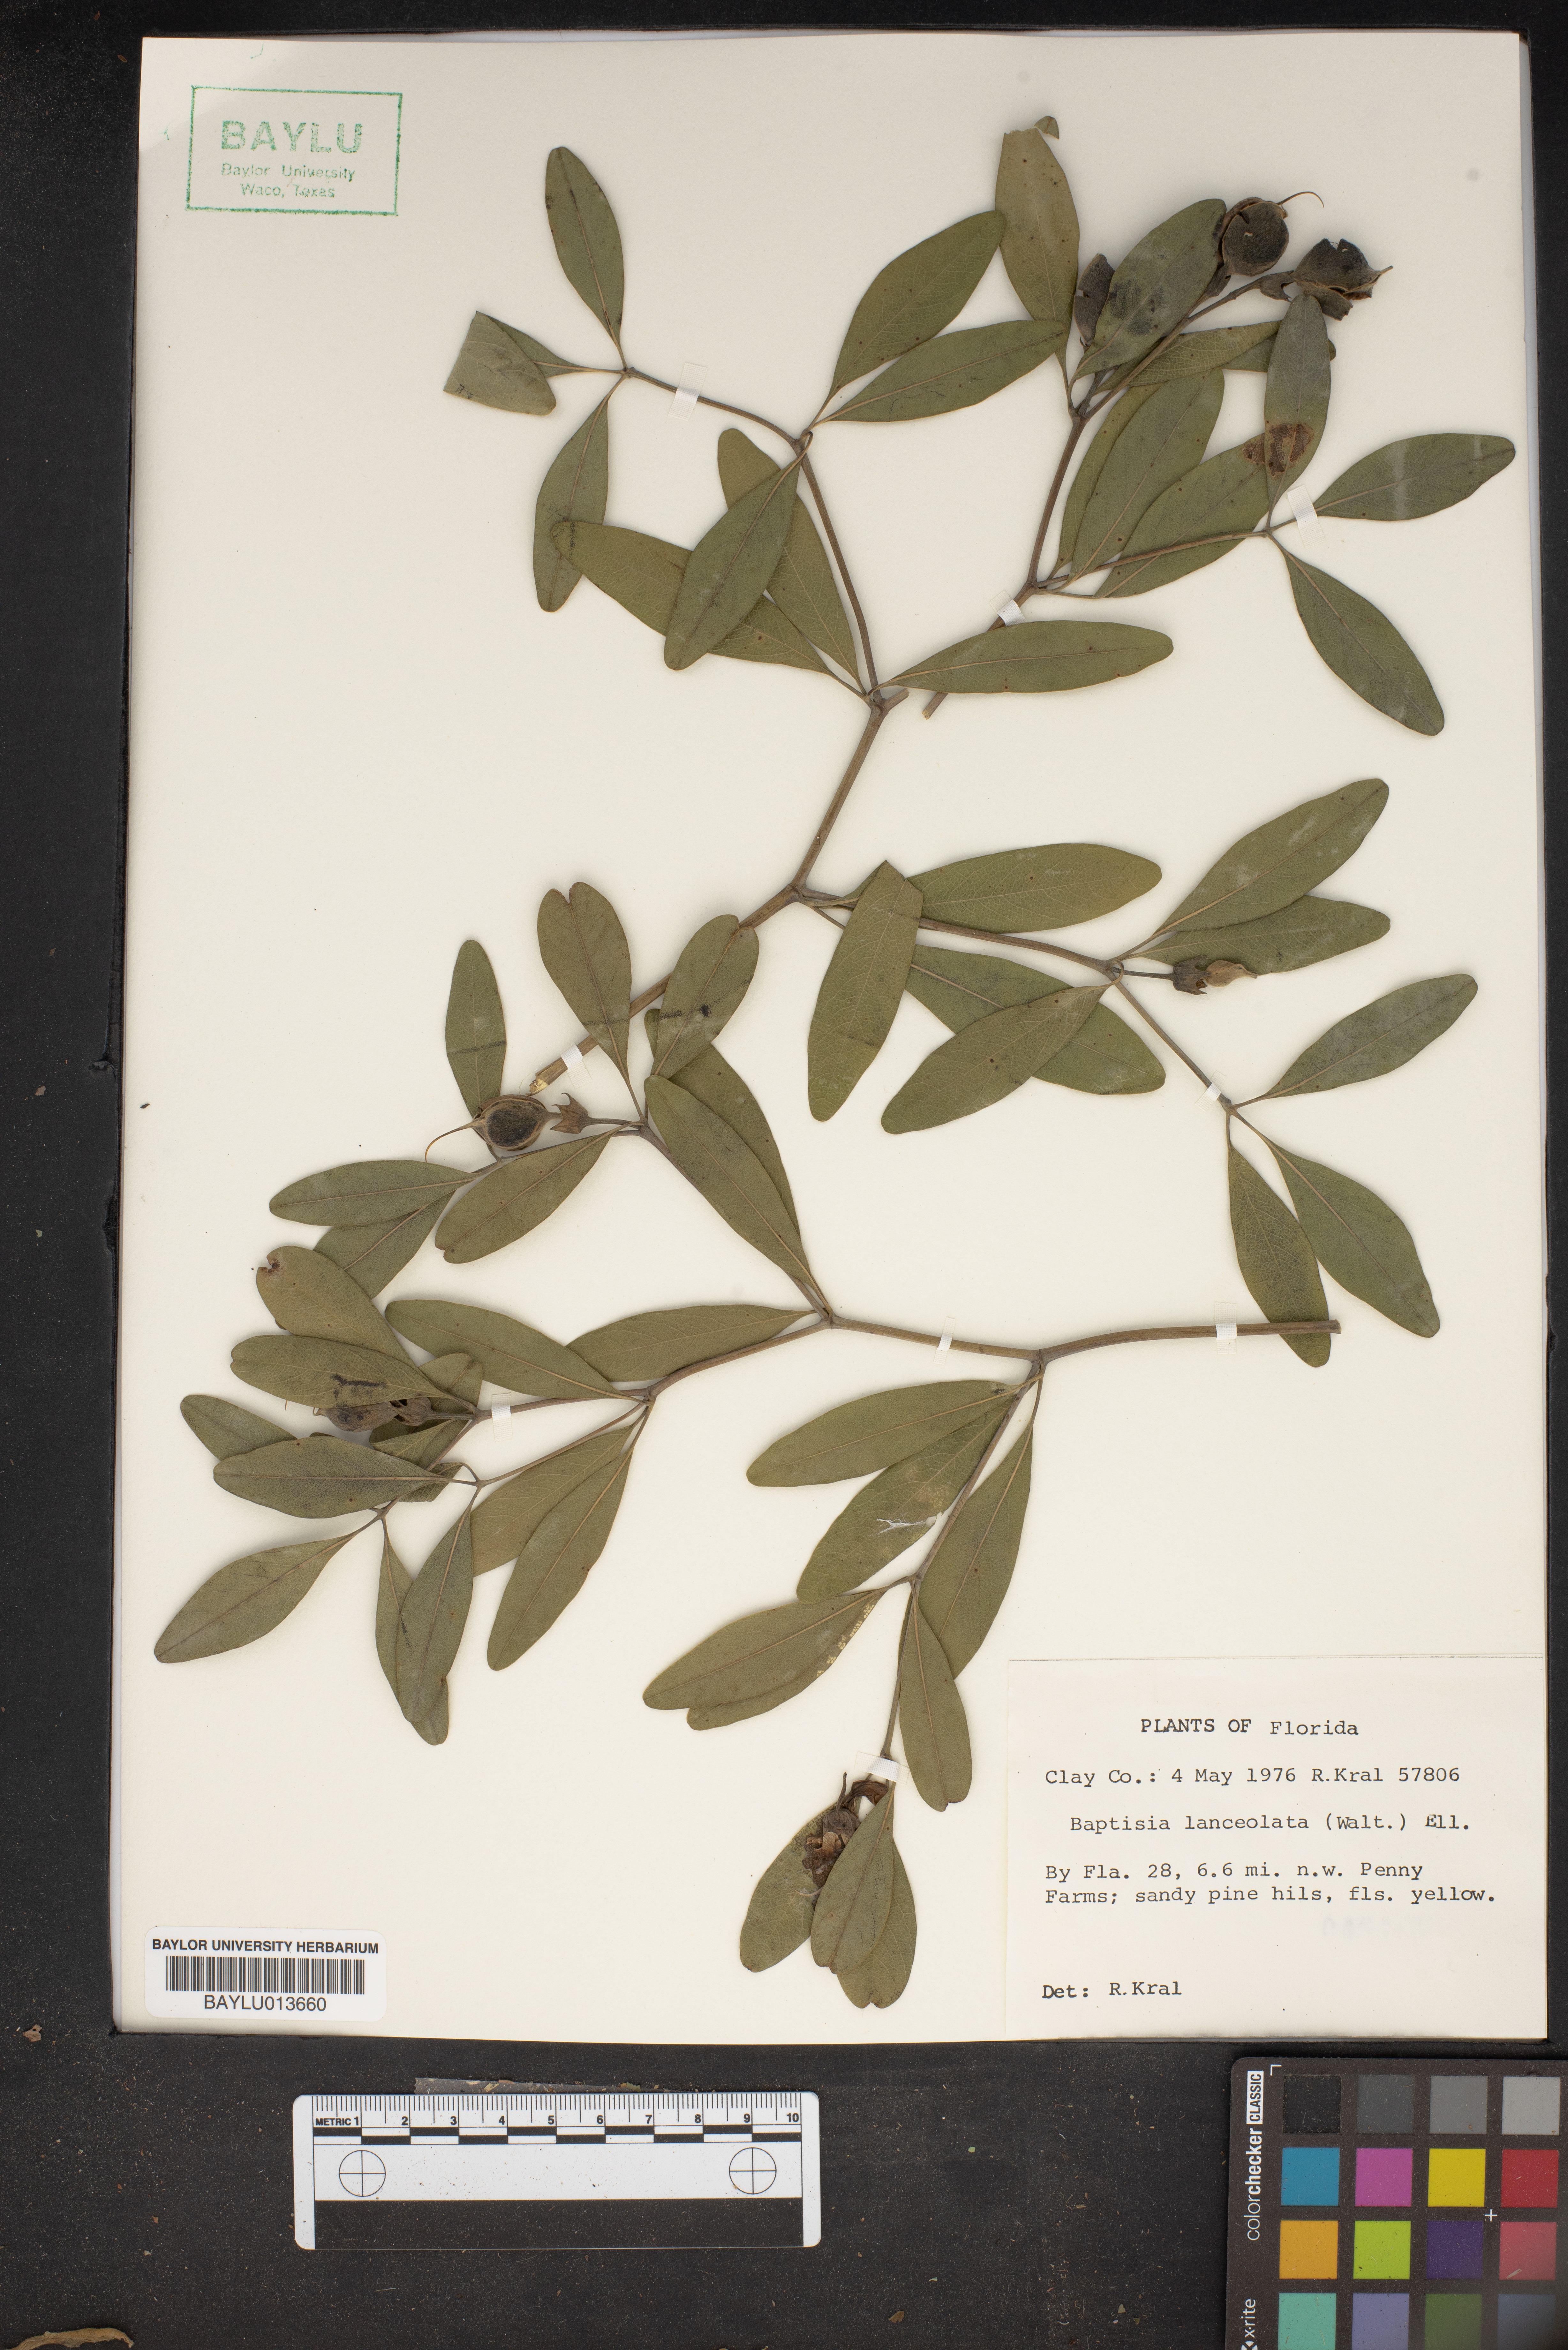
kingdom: Plantae
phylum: Tracheophyta
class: Magnoliopsida
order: Fabales
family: Fabaceae
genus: Baptisia
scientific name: Baptisia lanceolata
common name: Gopherweed
